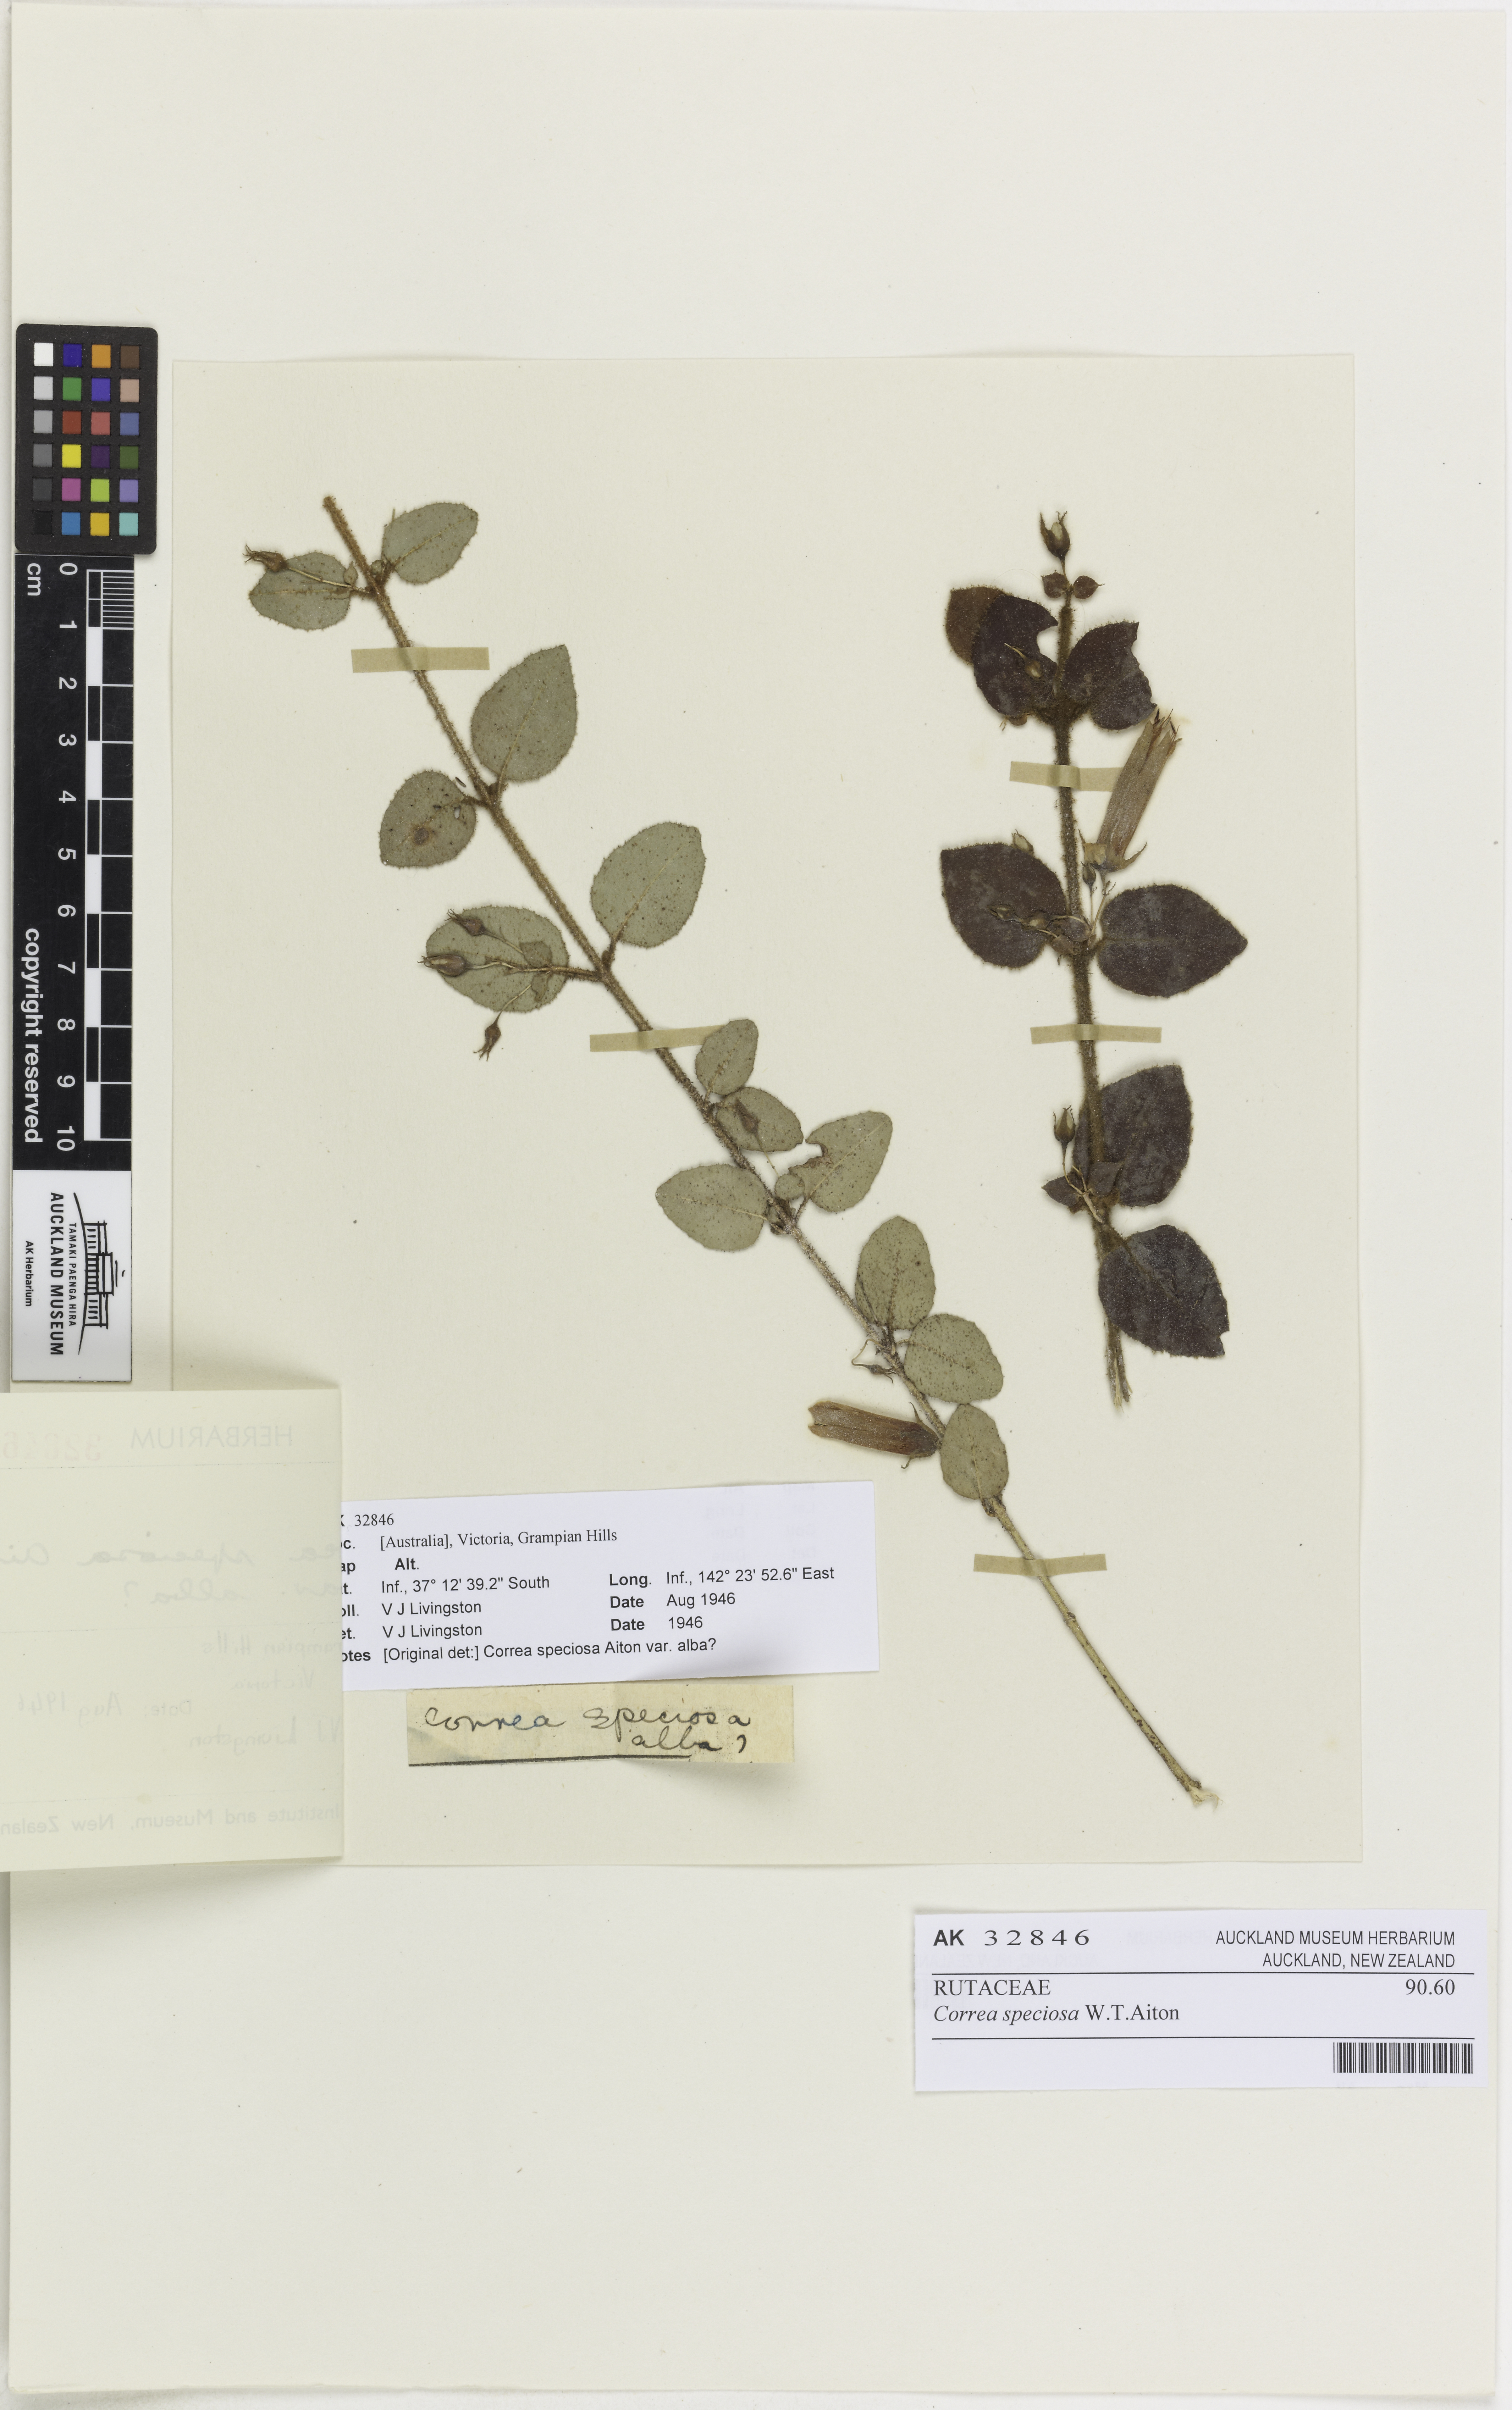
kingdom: Plantae
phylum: Tracheophyta
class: Magnoliopsida
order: Sapindales
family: Rutaceae
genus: Correa
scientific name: Correa reflexa
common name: Common correa
